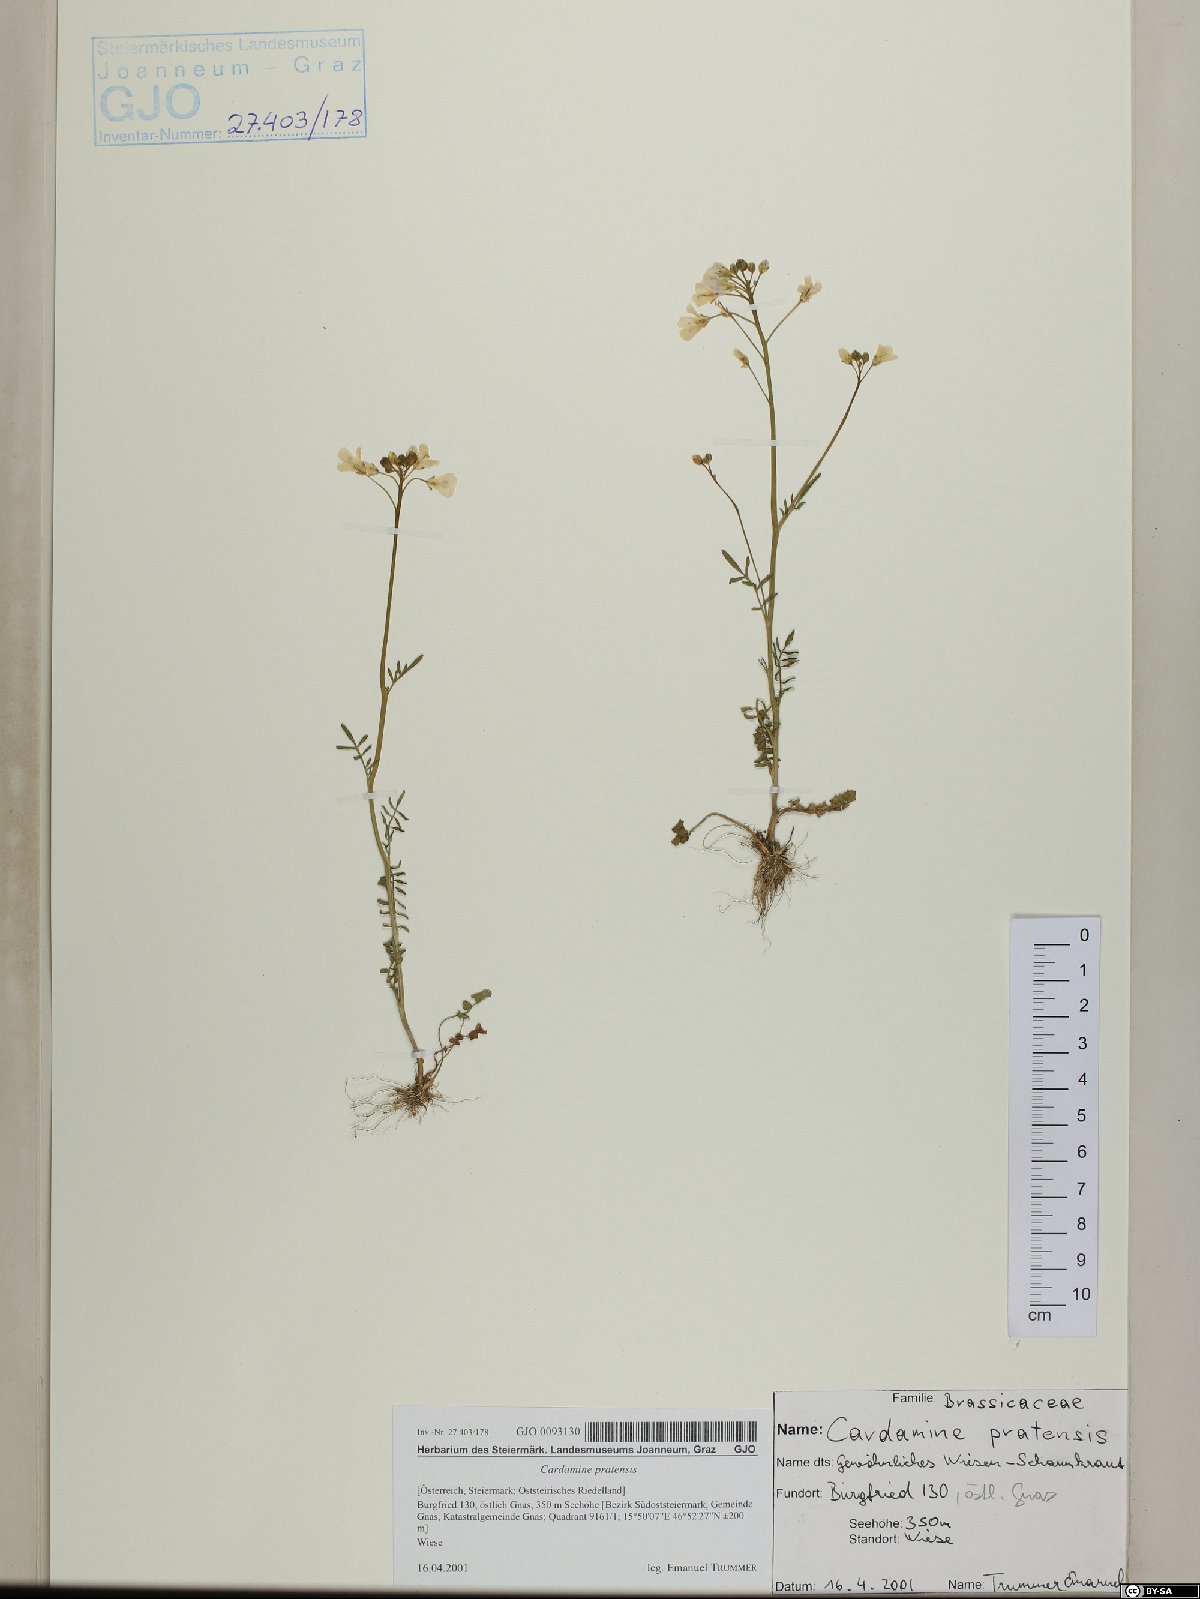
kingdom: Plantae
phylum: Tracheophyta
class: Magnoliopsida
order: Brassicales
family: Brassicaceae
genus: Cardamine
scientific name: Cardamine pratensis
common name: Cuckoo flower
